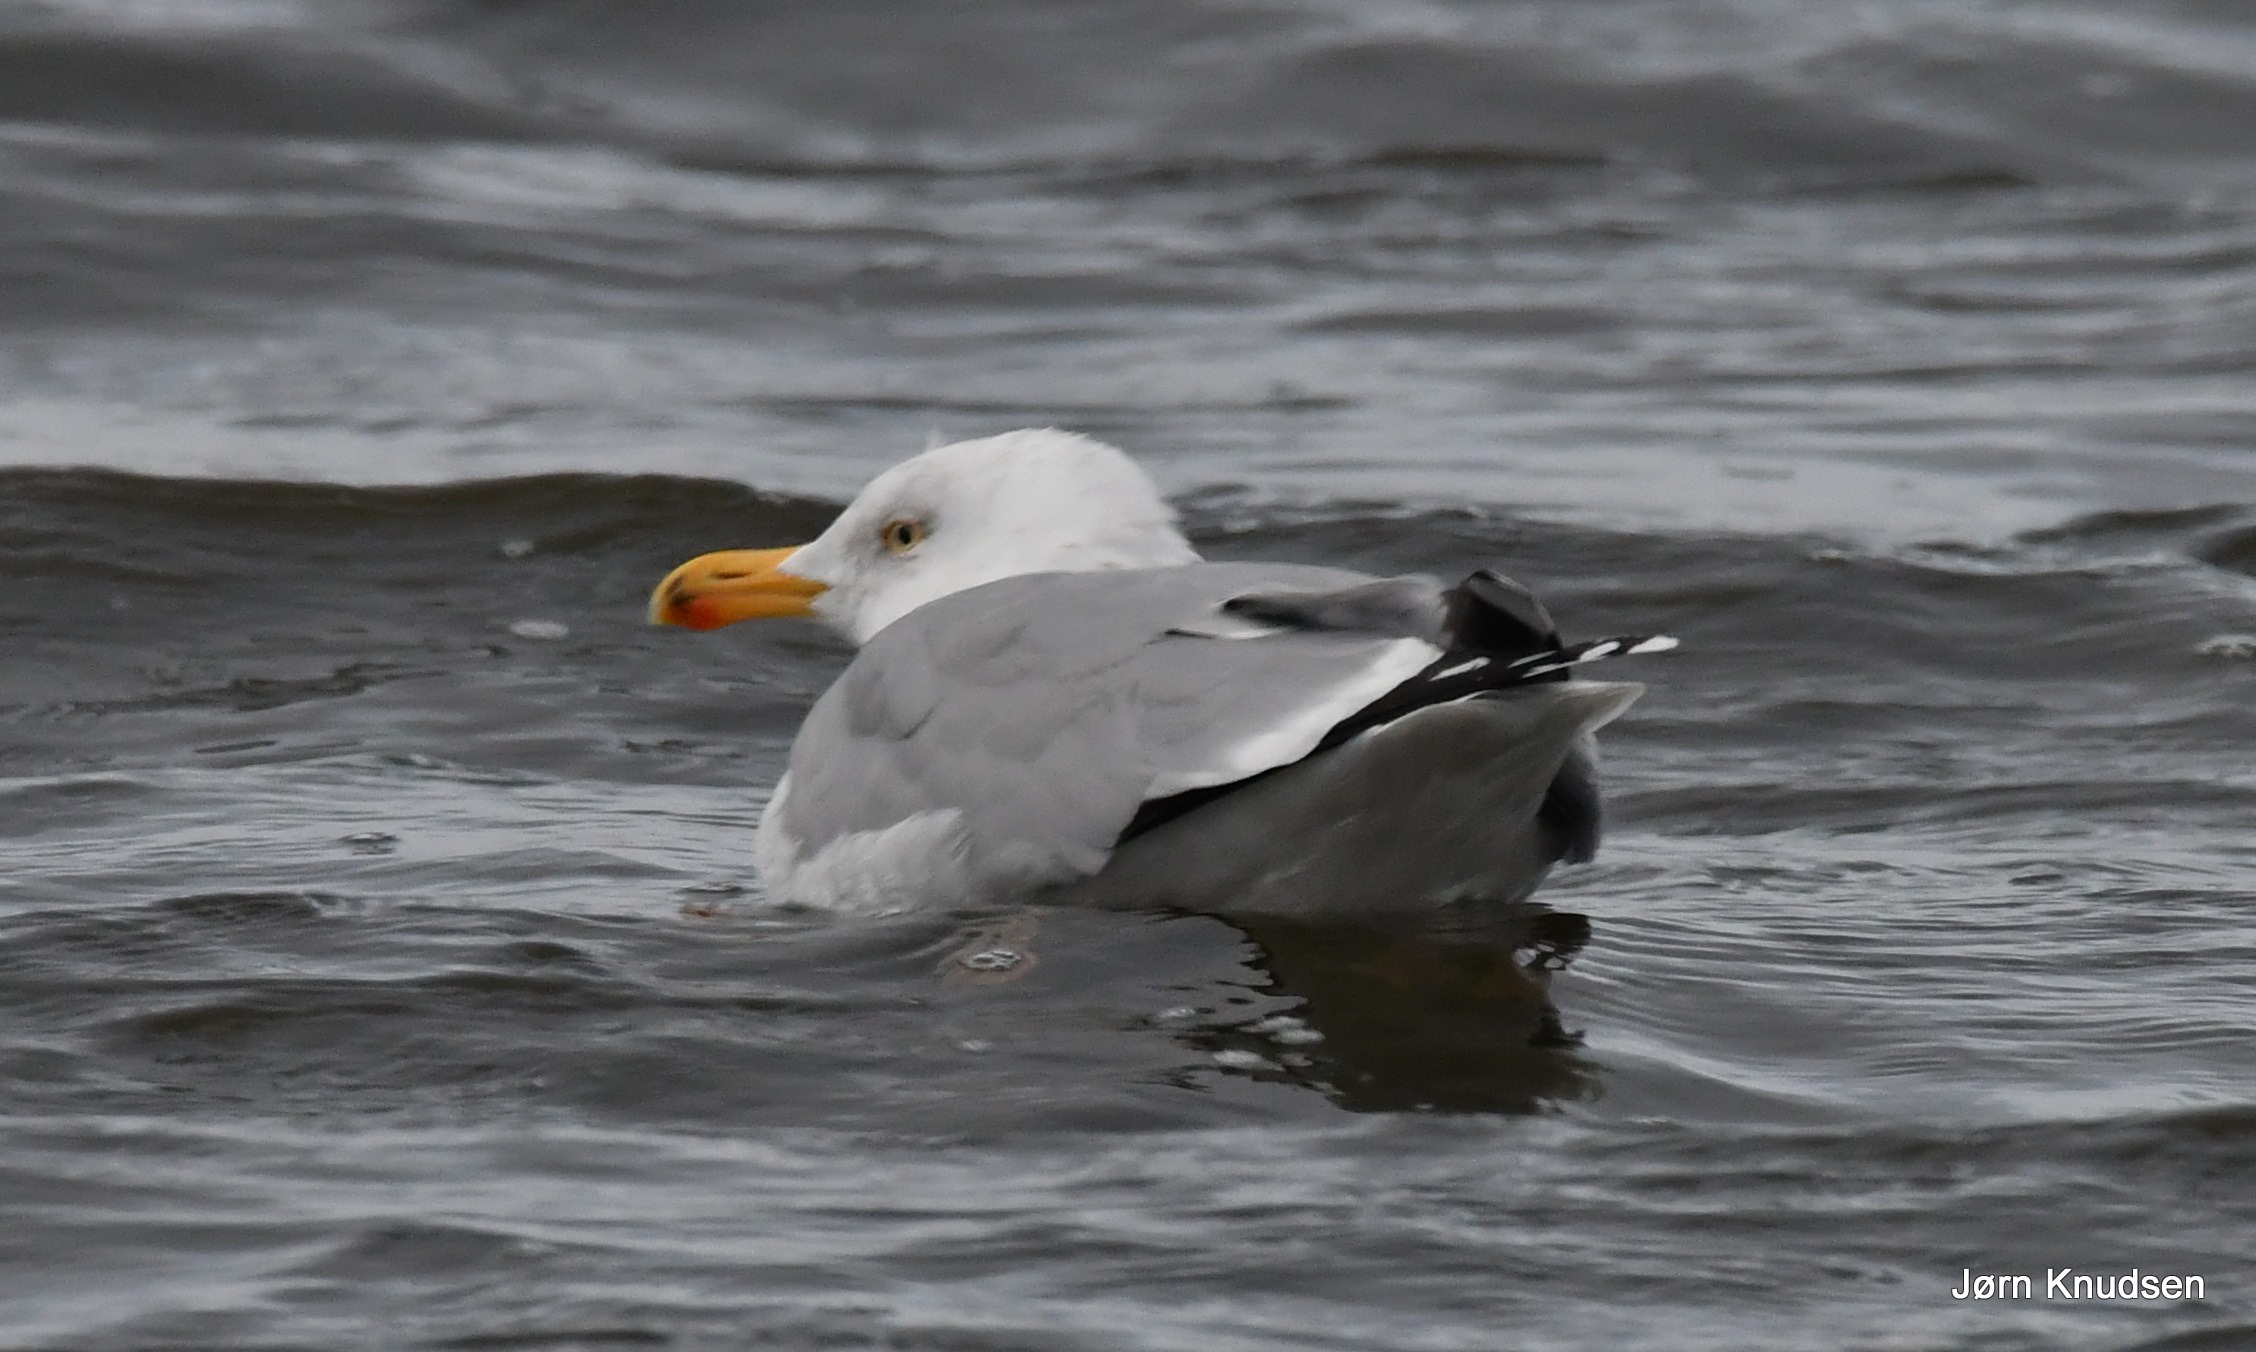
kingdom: Animalia
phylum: Chordata
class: Aves
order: Charadriiformes
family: Laridae
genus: Larus
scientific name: Larus argentatus
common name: Sølvmåge
